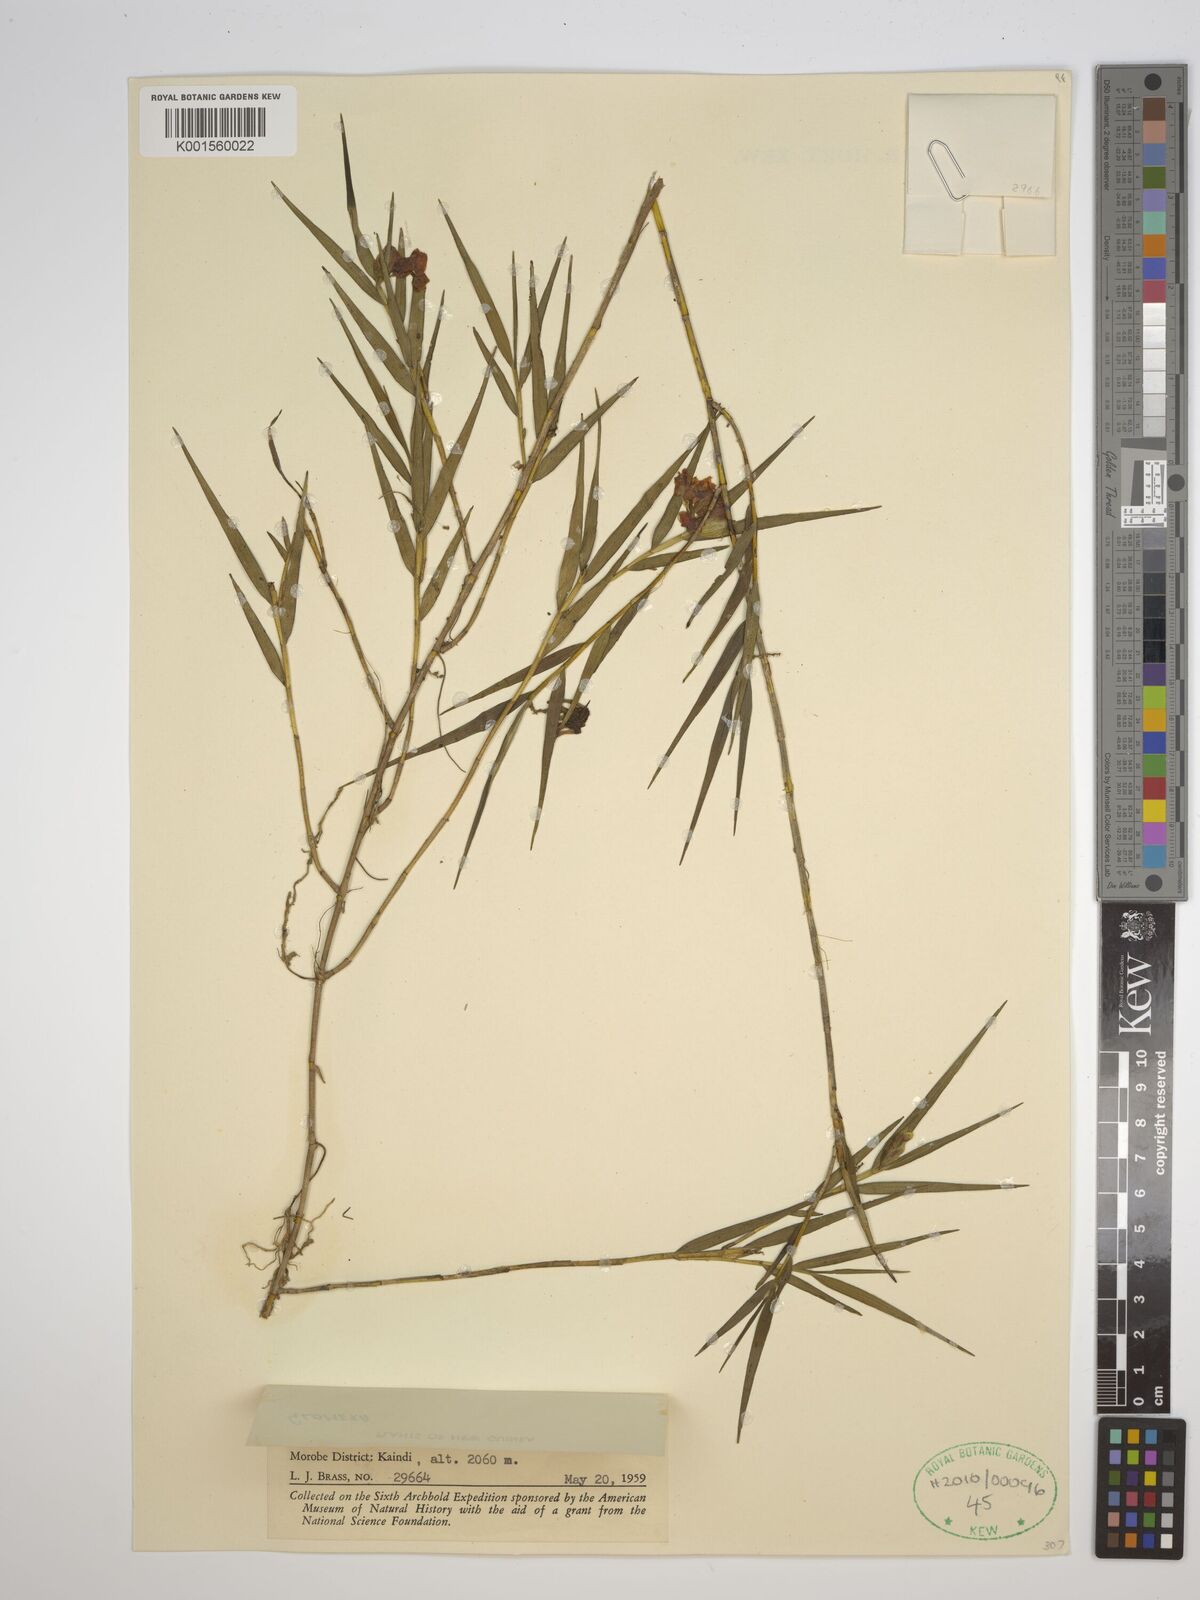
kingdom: Plantae
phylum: Tracheophyta
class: Liliopsida
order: Asparagales
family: Orchidaceae
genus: Glomera
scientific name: Glomera
